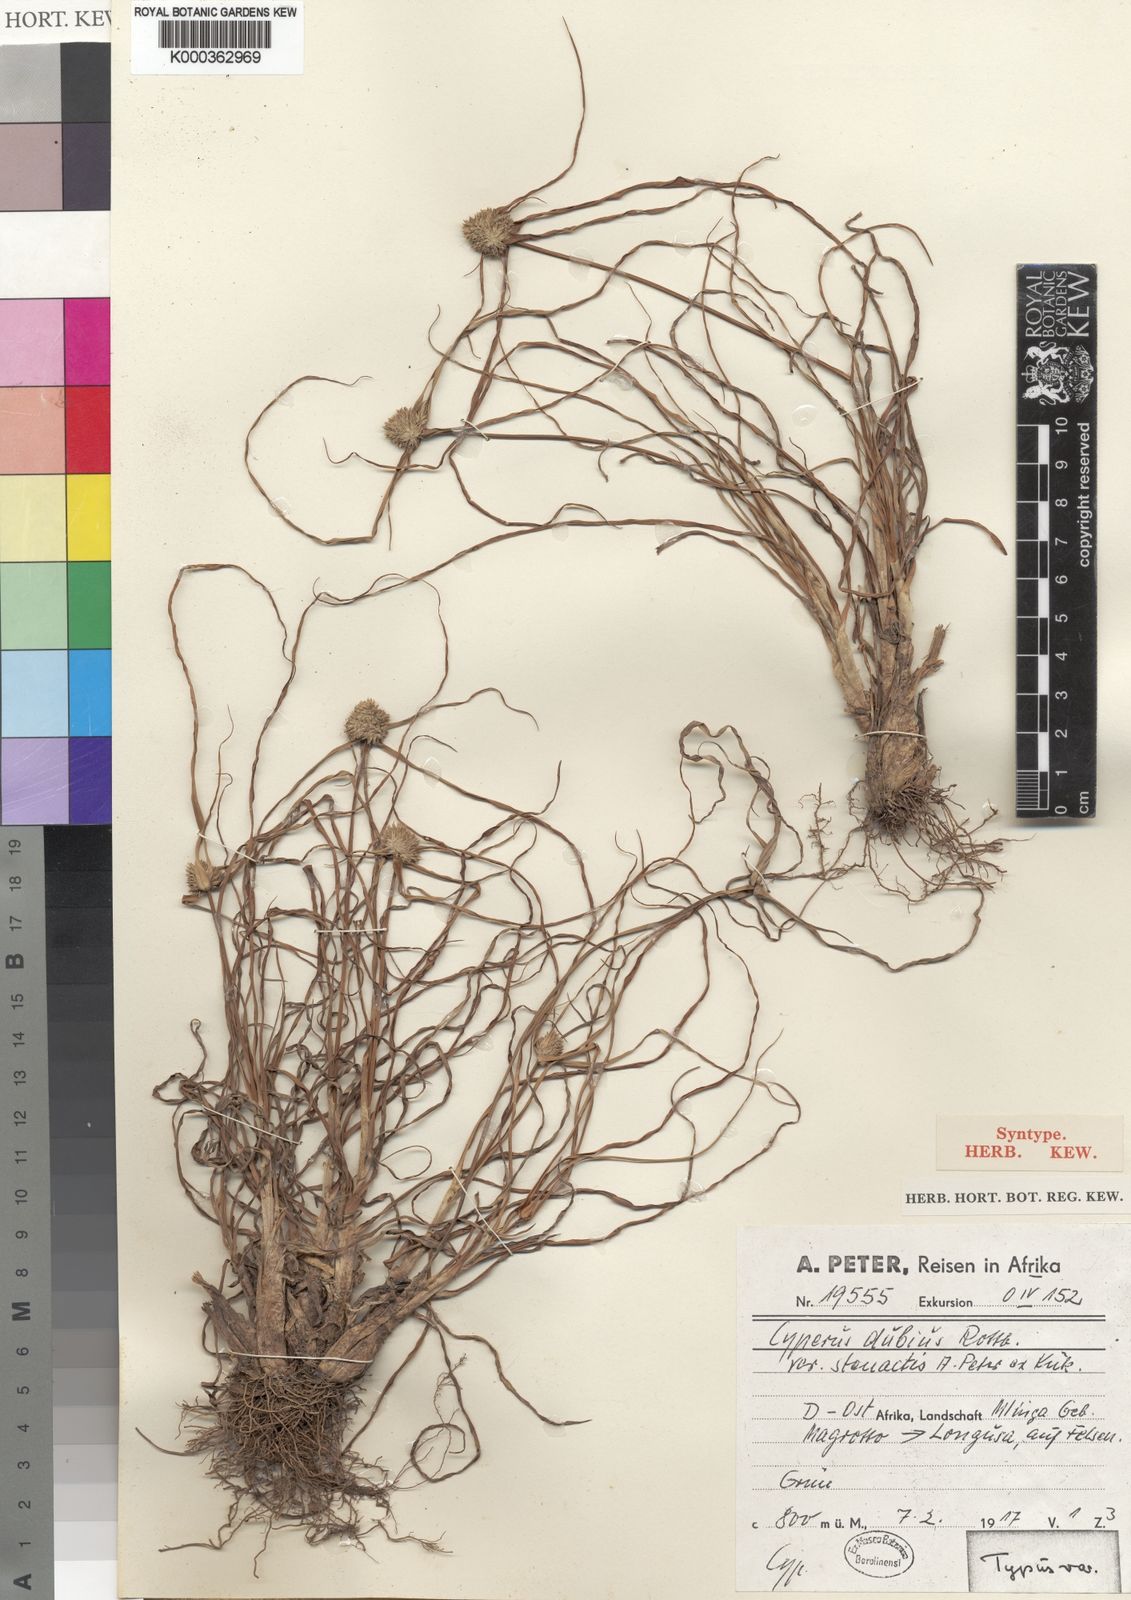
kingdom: Plantae
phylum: Tracheophyta
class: Liliopsida
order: Poales
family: Cyperaceae
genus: Cyperus
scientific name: Cyperus dubius
